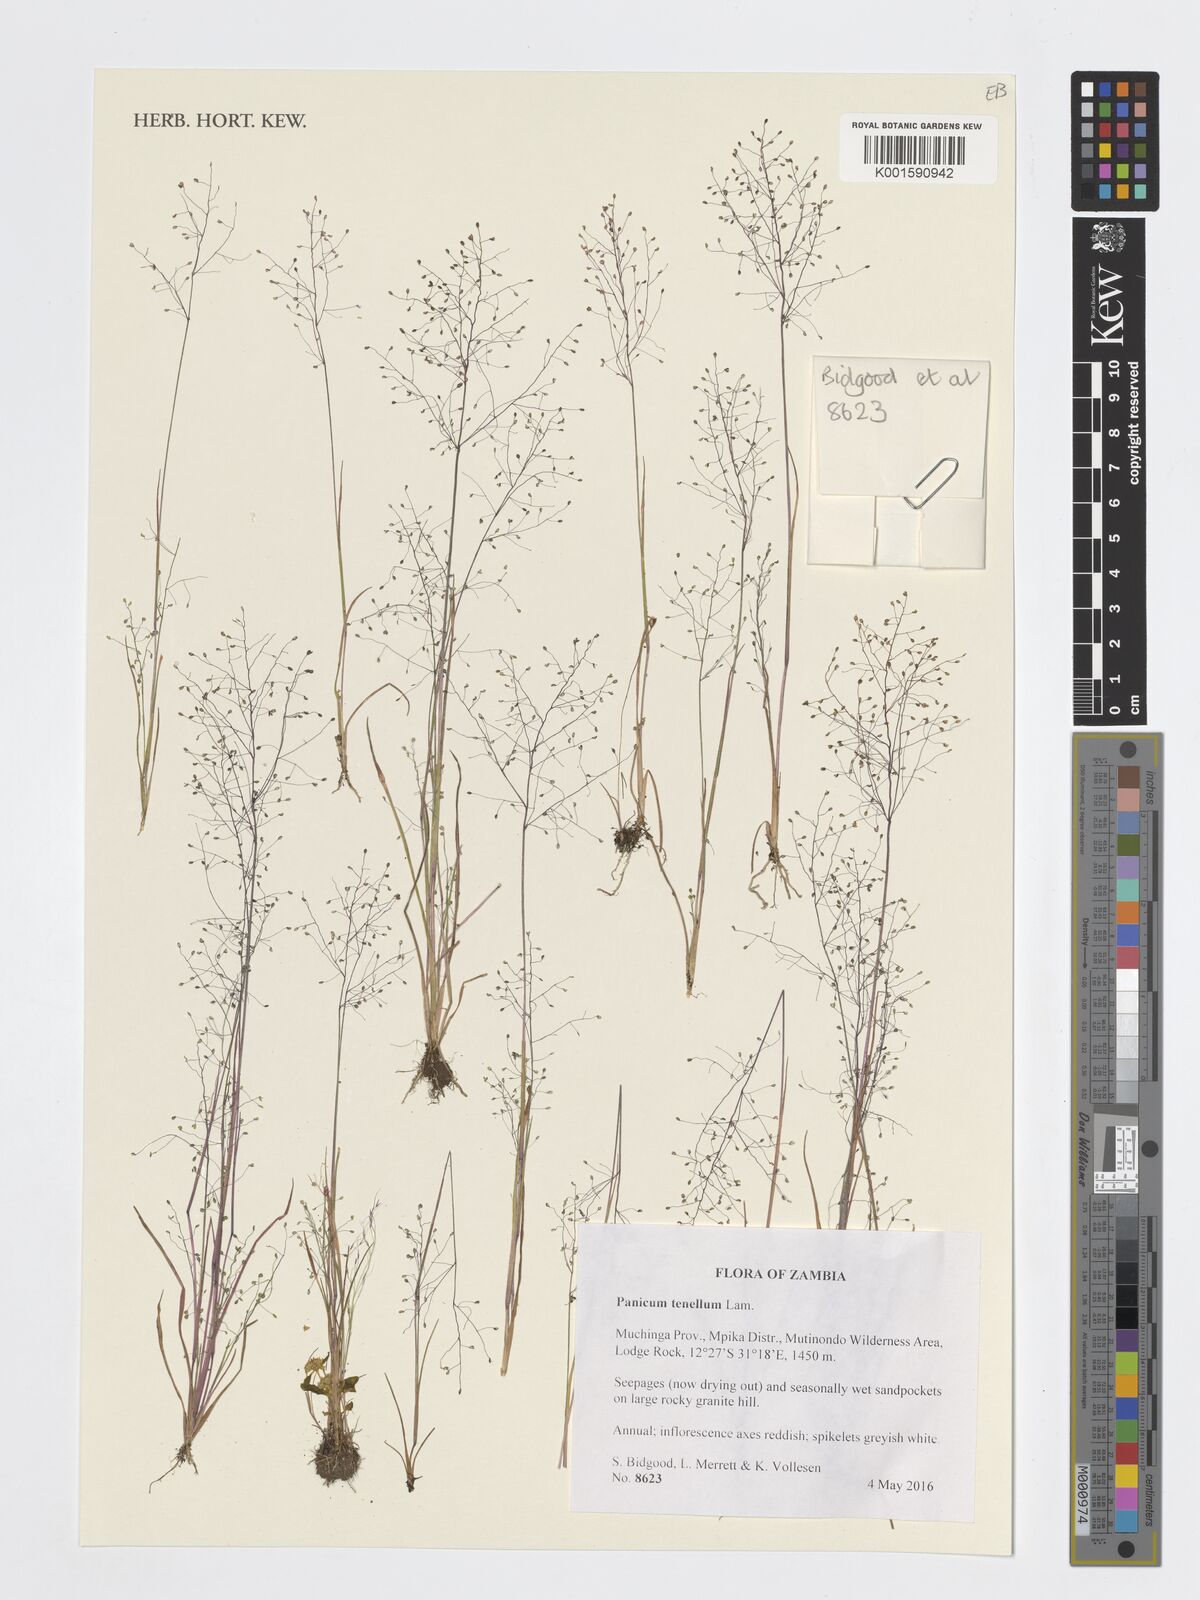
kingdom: Plantae
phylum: Tracheophyta
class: Liliopsida
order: Poales
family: Poaceae
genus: Trichanthecium
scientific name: Trichanthecium tenellum
